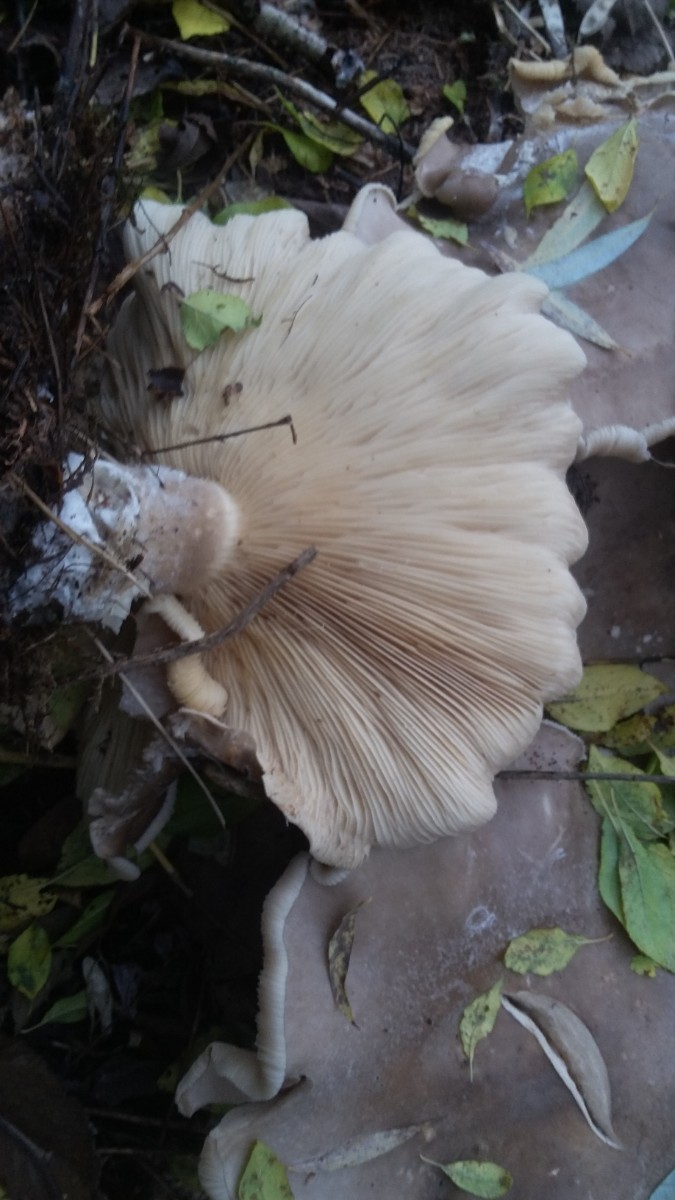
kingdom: Fungi
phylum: Basidiomycota
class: Agaricomycetes
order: Agaricales
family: Tricholomataceae
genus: Clitocybe
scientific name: Clitocybe nebularis
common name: tåge-tragthat
